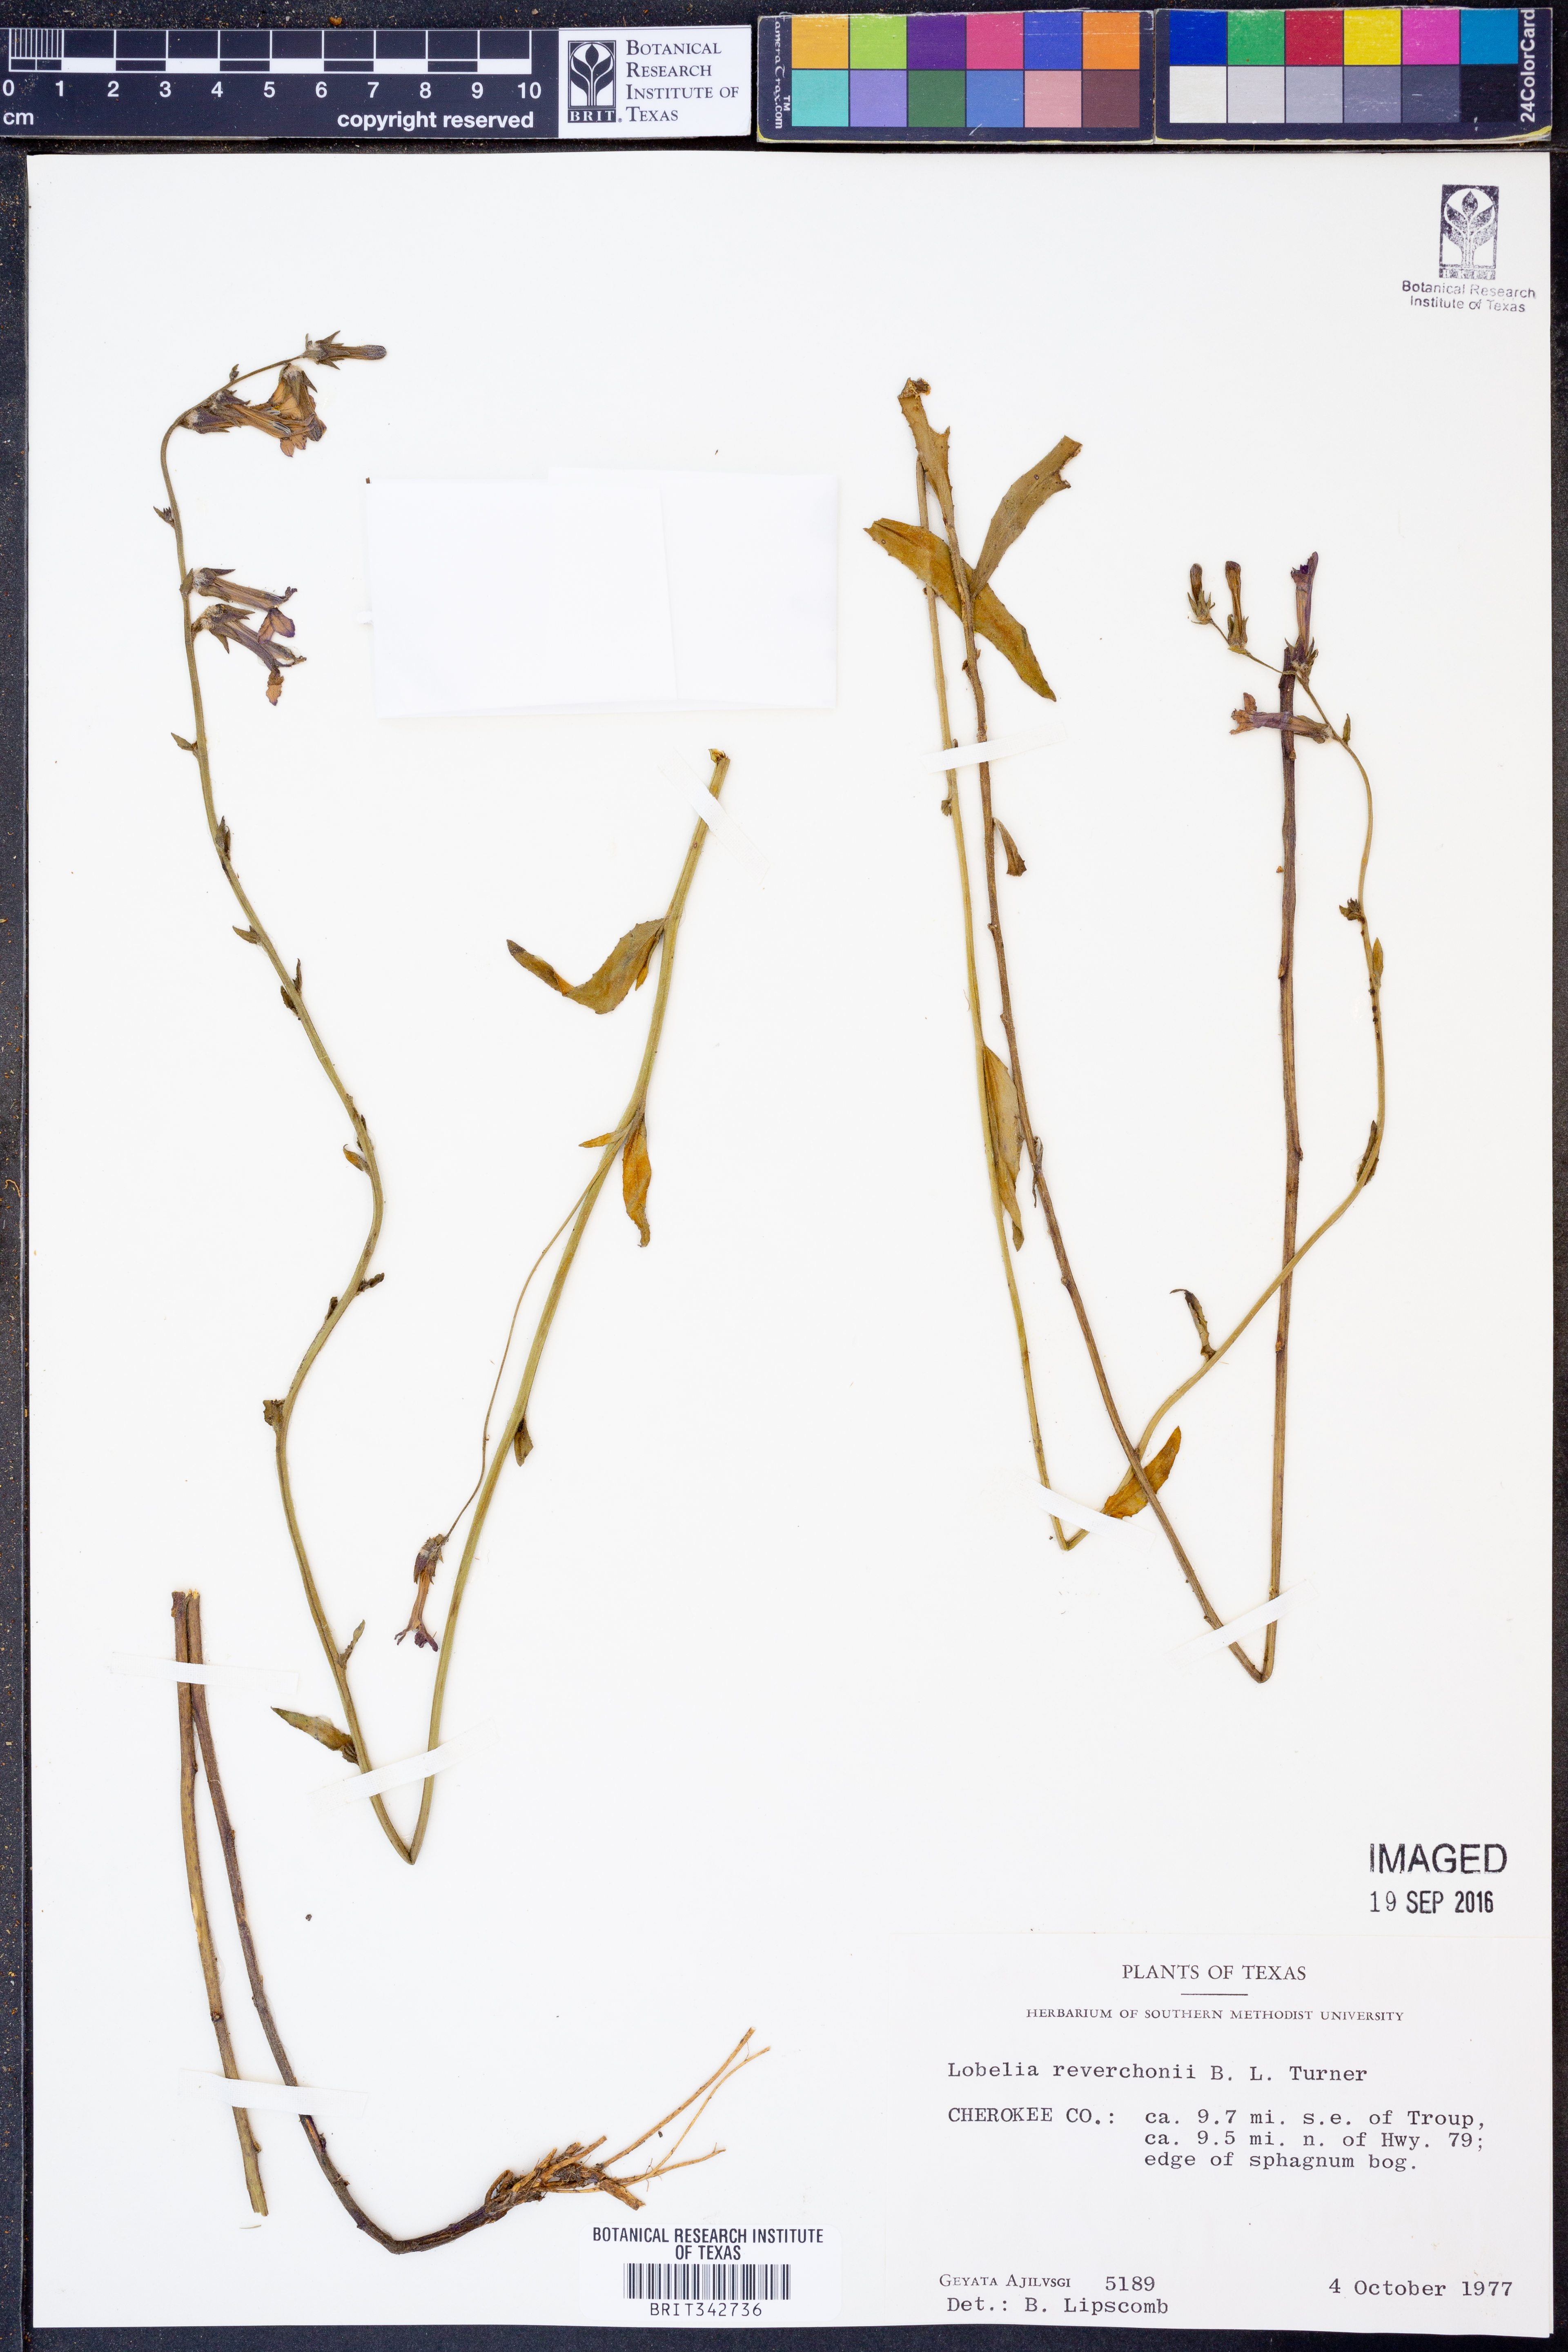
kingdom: Plantae
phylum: Tracheophyta
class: Magnoliopsida
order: Asterales
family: Campanulaceae
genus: Lobelia
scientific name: Lobelia reverchonii
